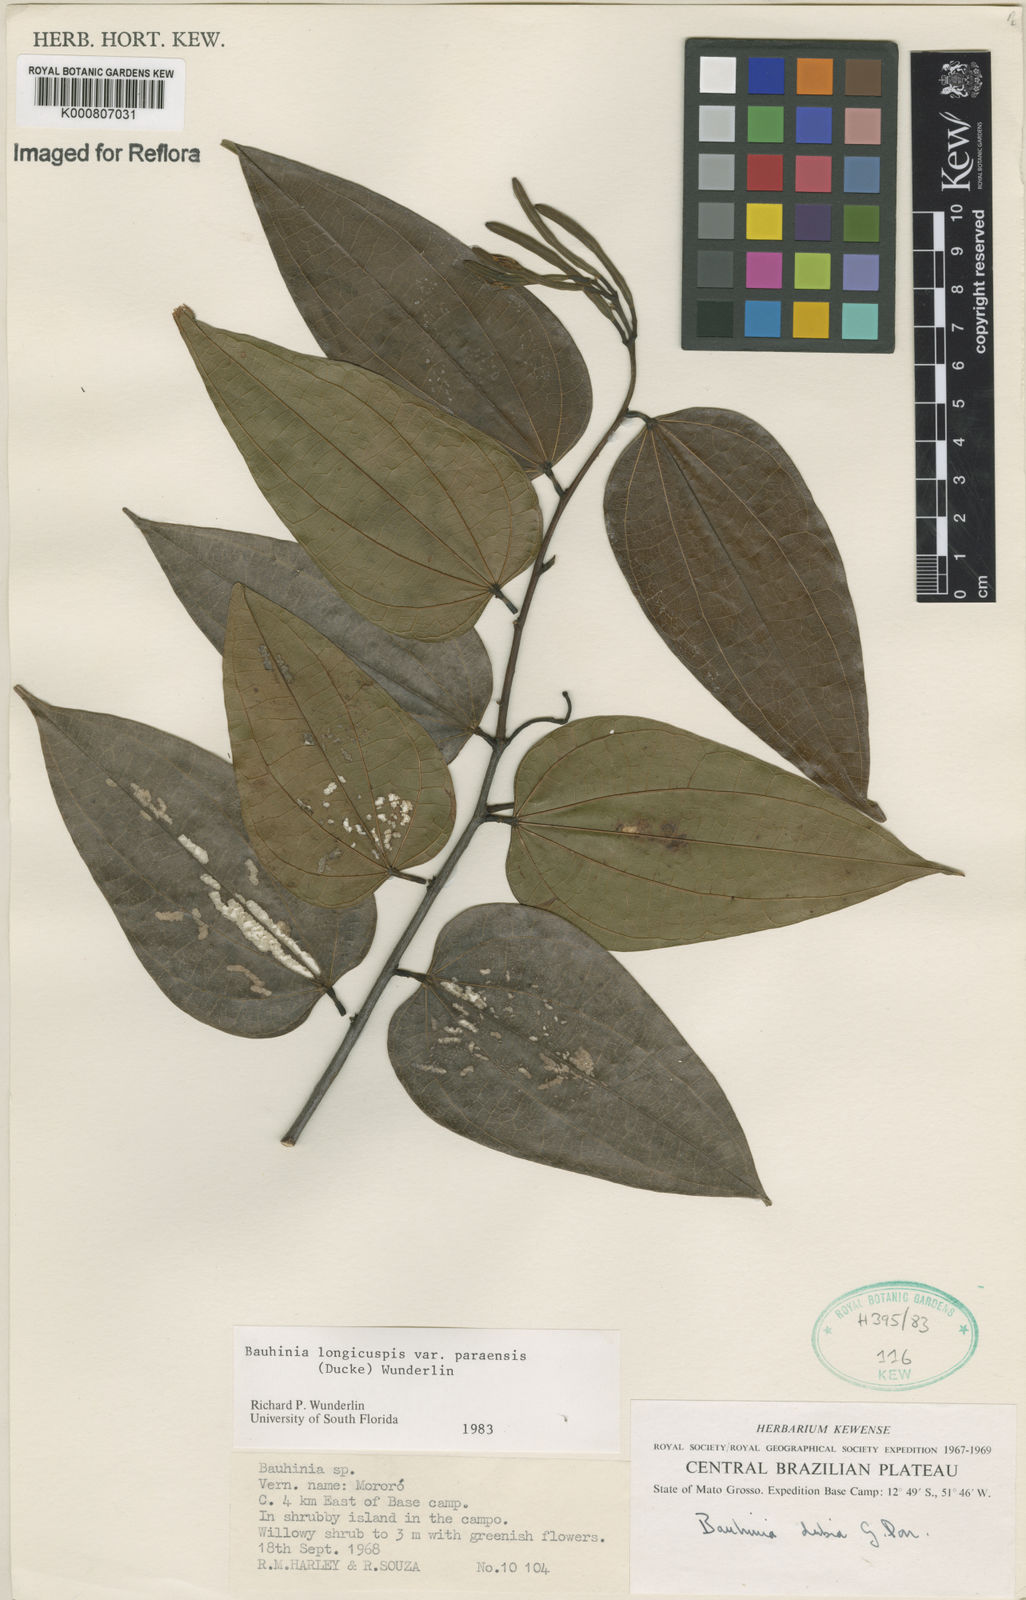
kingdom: Plantae
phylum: Tracheophyta
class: Magnoliopsida
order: Fabales
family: Fabaceae
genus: Bauhinia
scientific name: Bauhinia longicuspis
